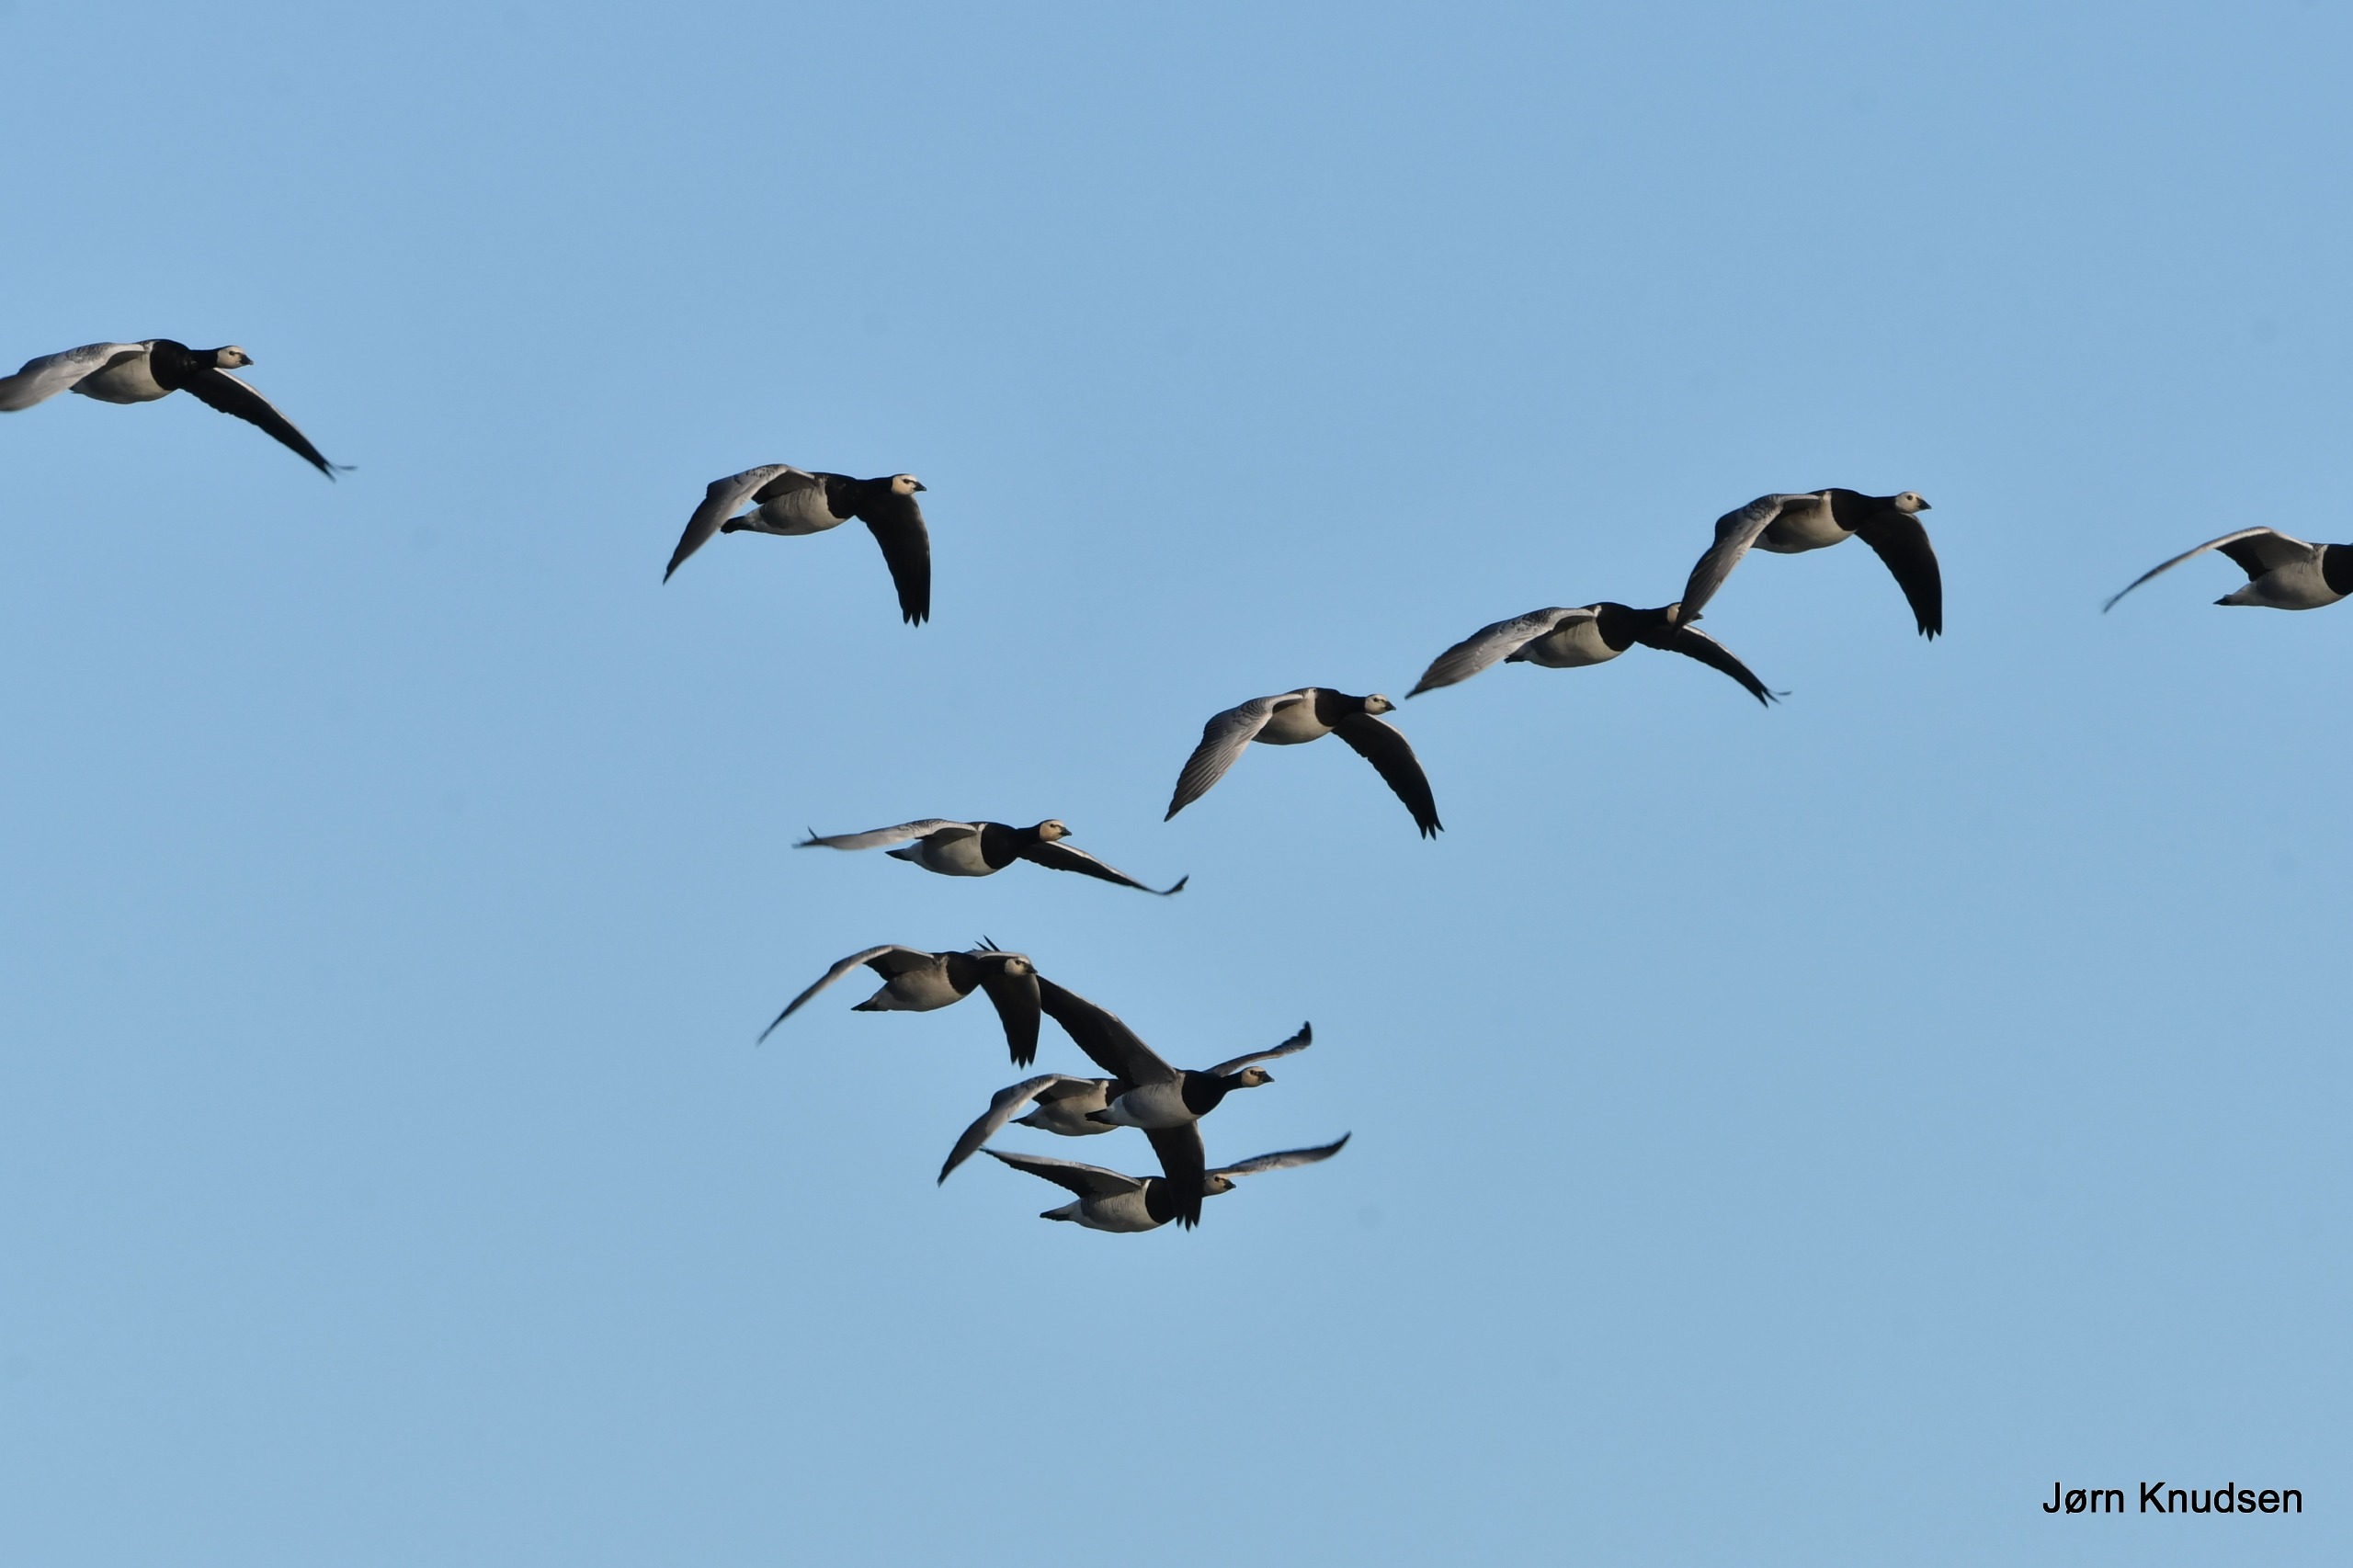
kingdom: Animalia
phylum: Chordata
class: Aves
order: Anseriformes
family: Anatidae
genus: Branta
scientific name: Branta leucopsis
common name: Bramgås
